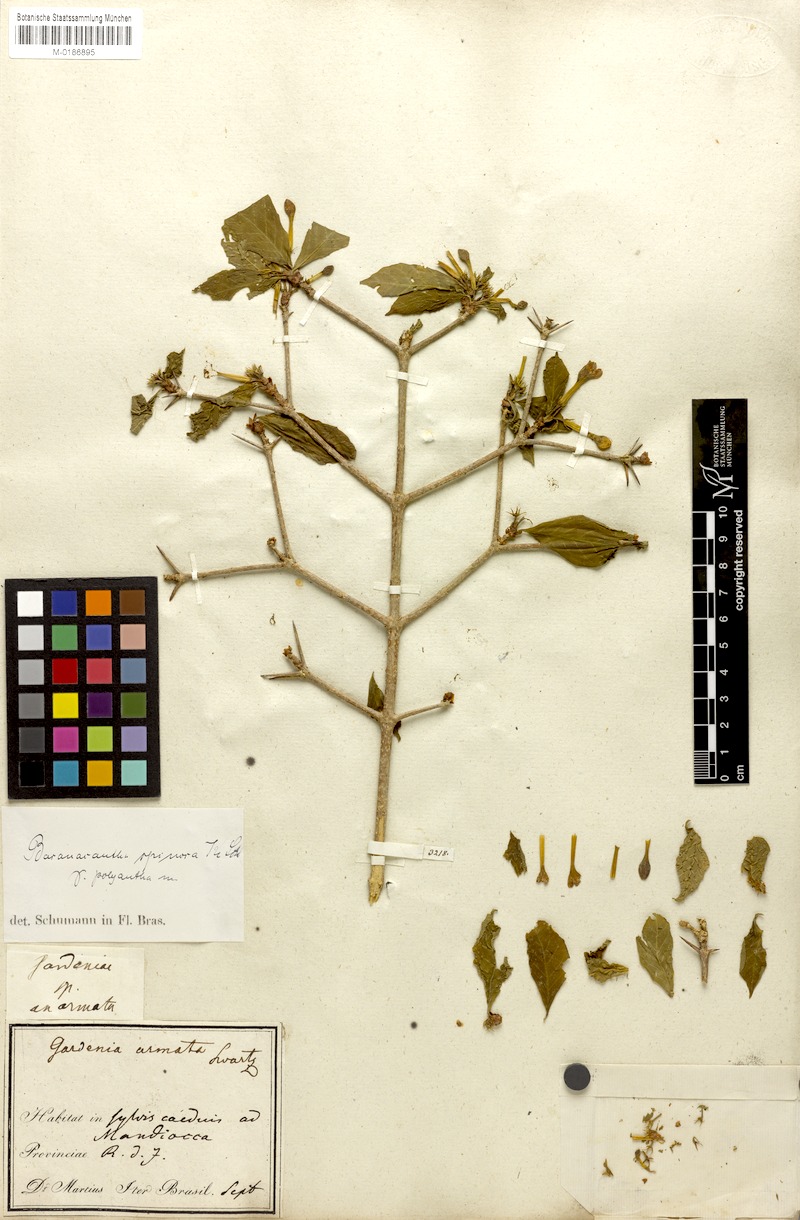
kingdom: Plantae
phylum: Tracheophyta
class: Magnoliopsida
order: Gentianales
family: Rubiaceae
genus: Randia
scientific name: Randia armata
